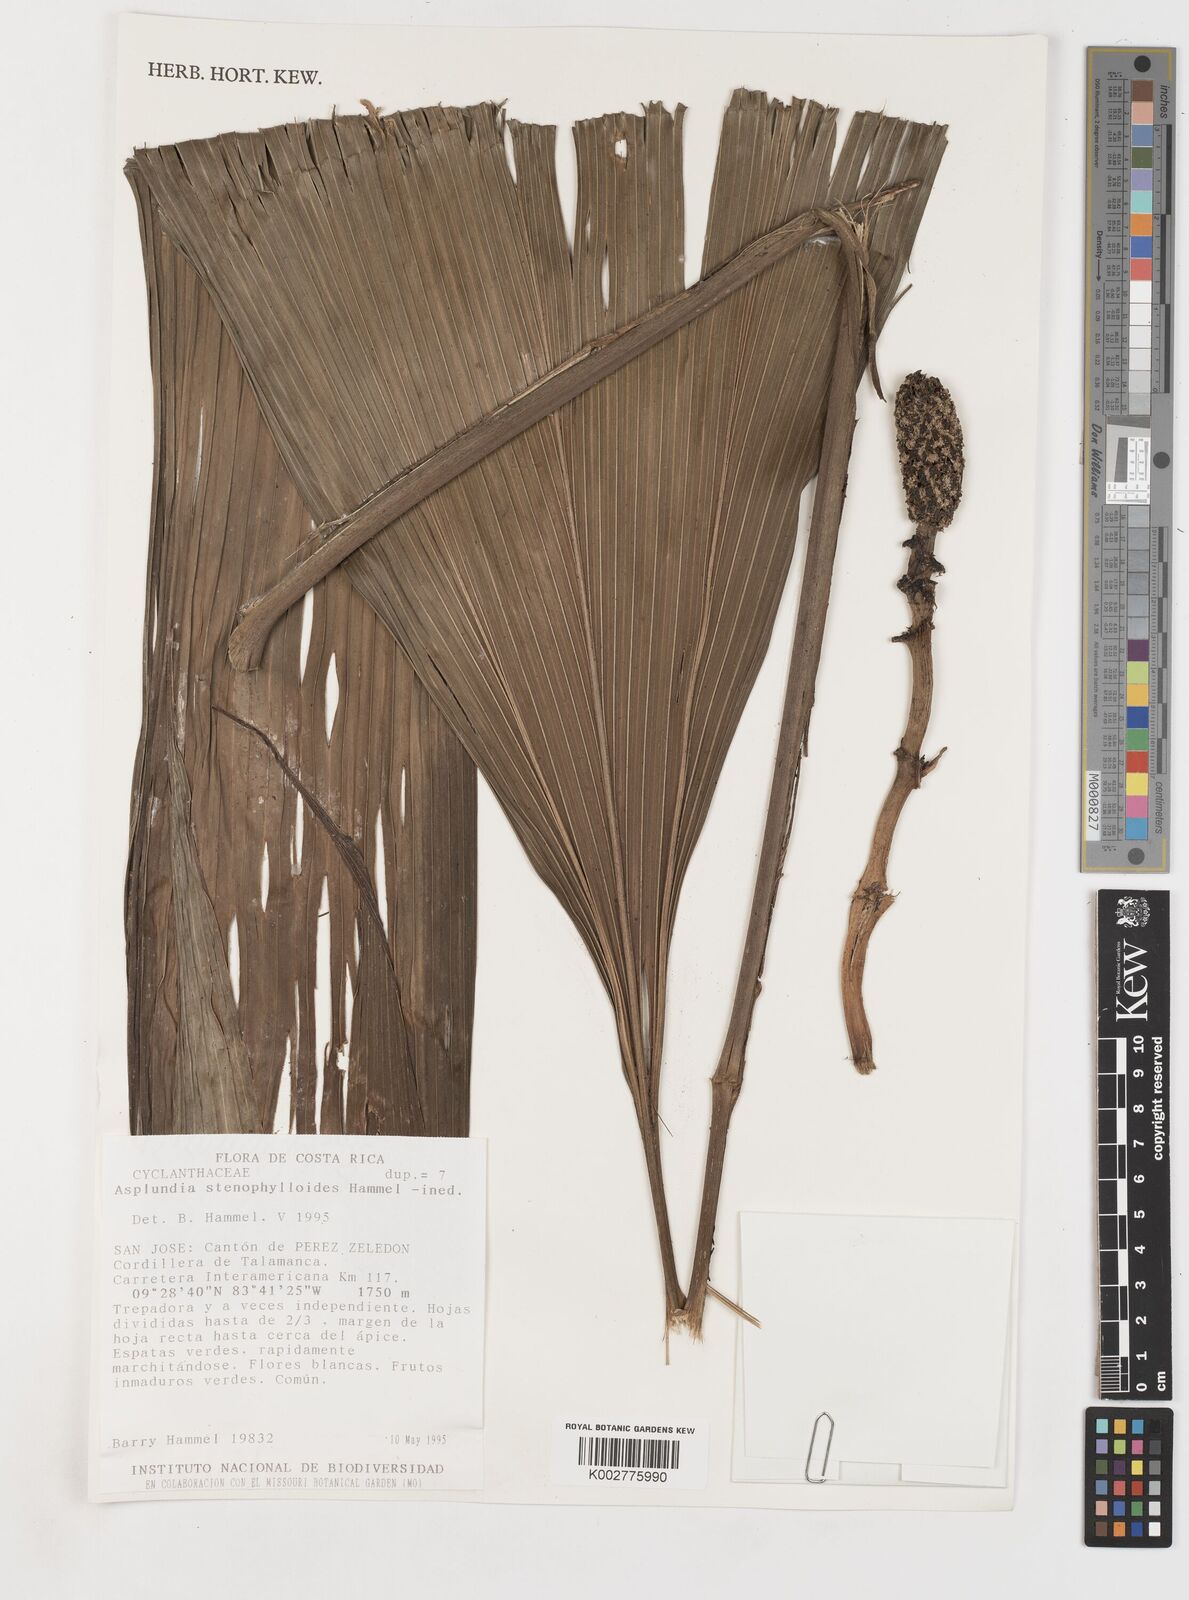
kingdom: Plantae
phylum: Tracheophyta
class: Liliopsida
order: Pandanales
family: Cyclanthaceae
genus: Asplundia
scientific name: Asplundia
